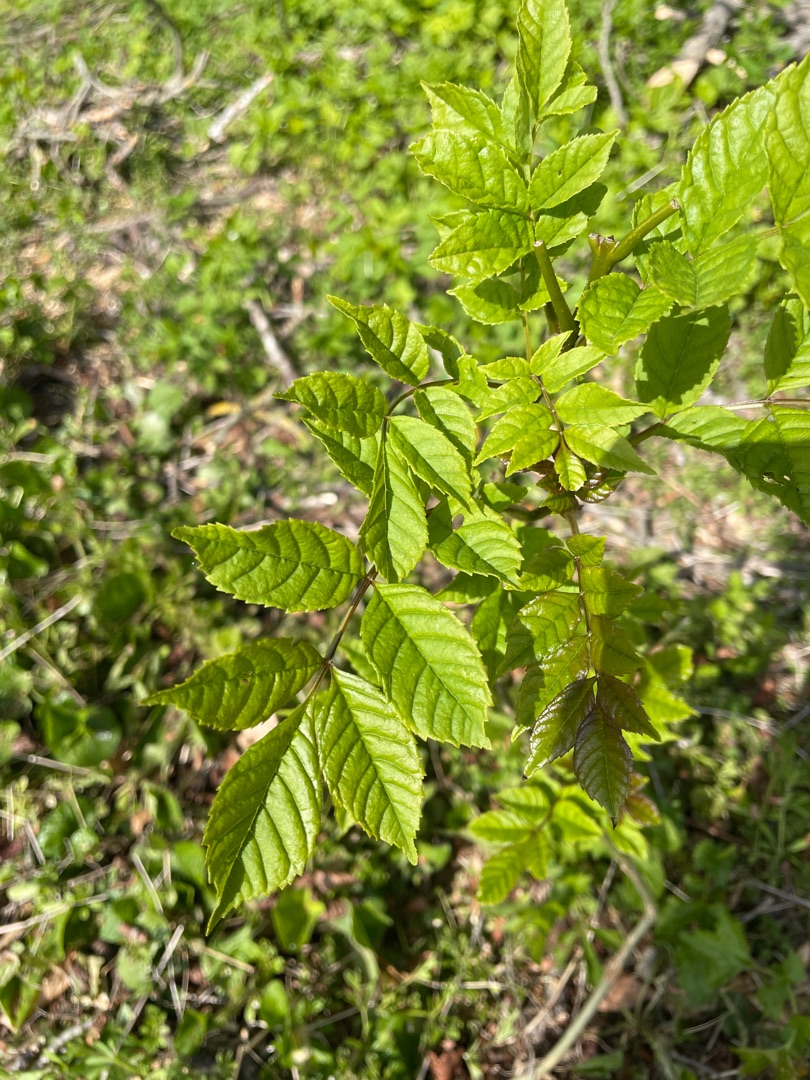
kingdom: Plantae
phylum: Tracheophyta
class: Magnoliopsida
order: Lamiales
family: Oleaceae
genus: Fraxinus
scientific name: Fraxinus excelsior
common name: Ask
